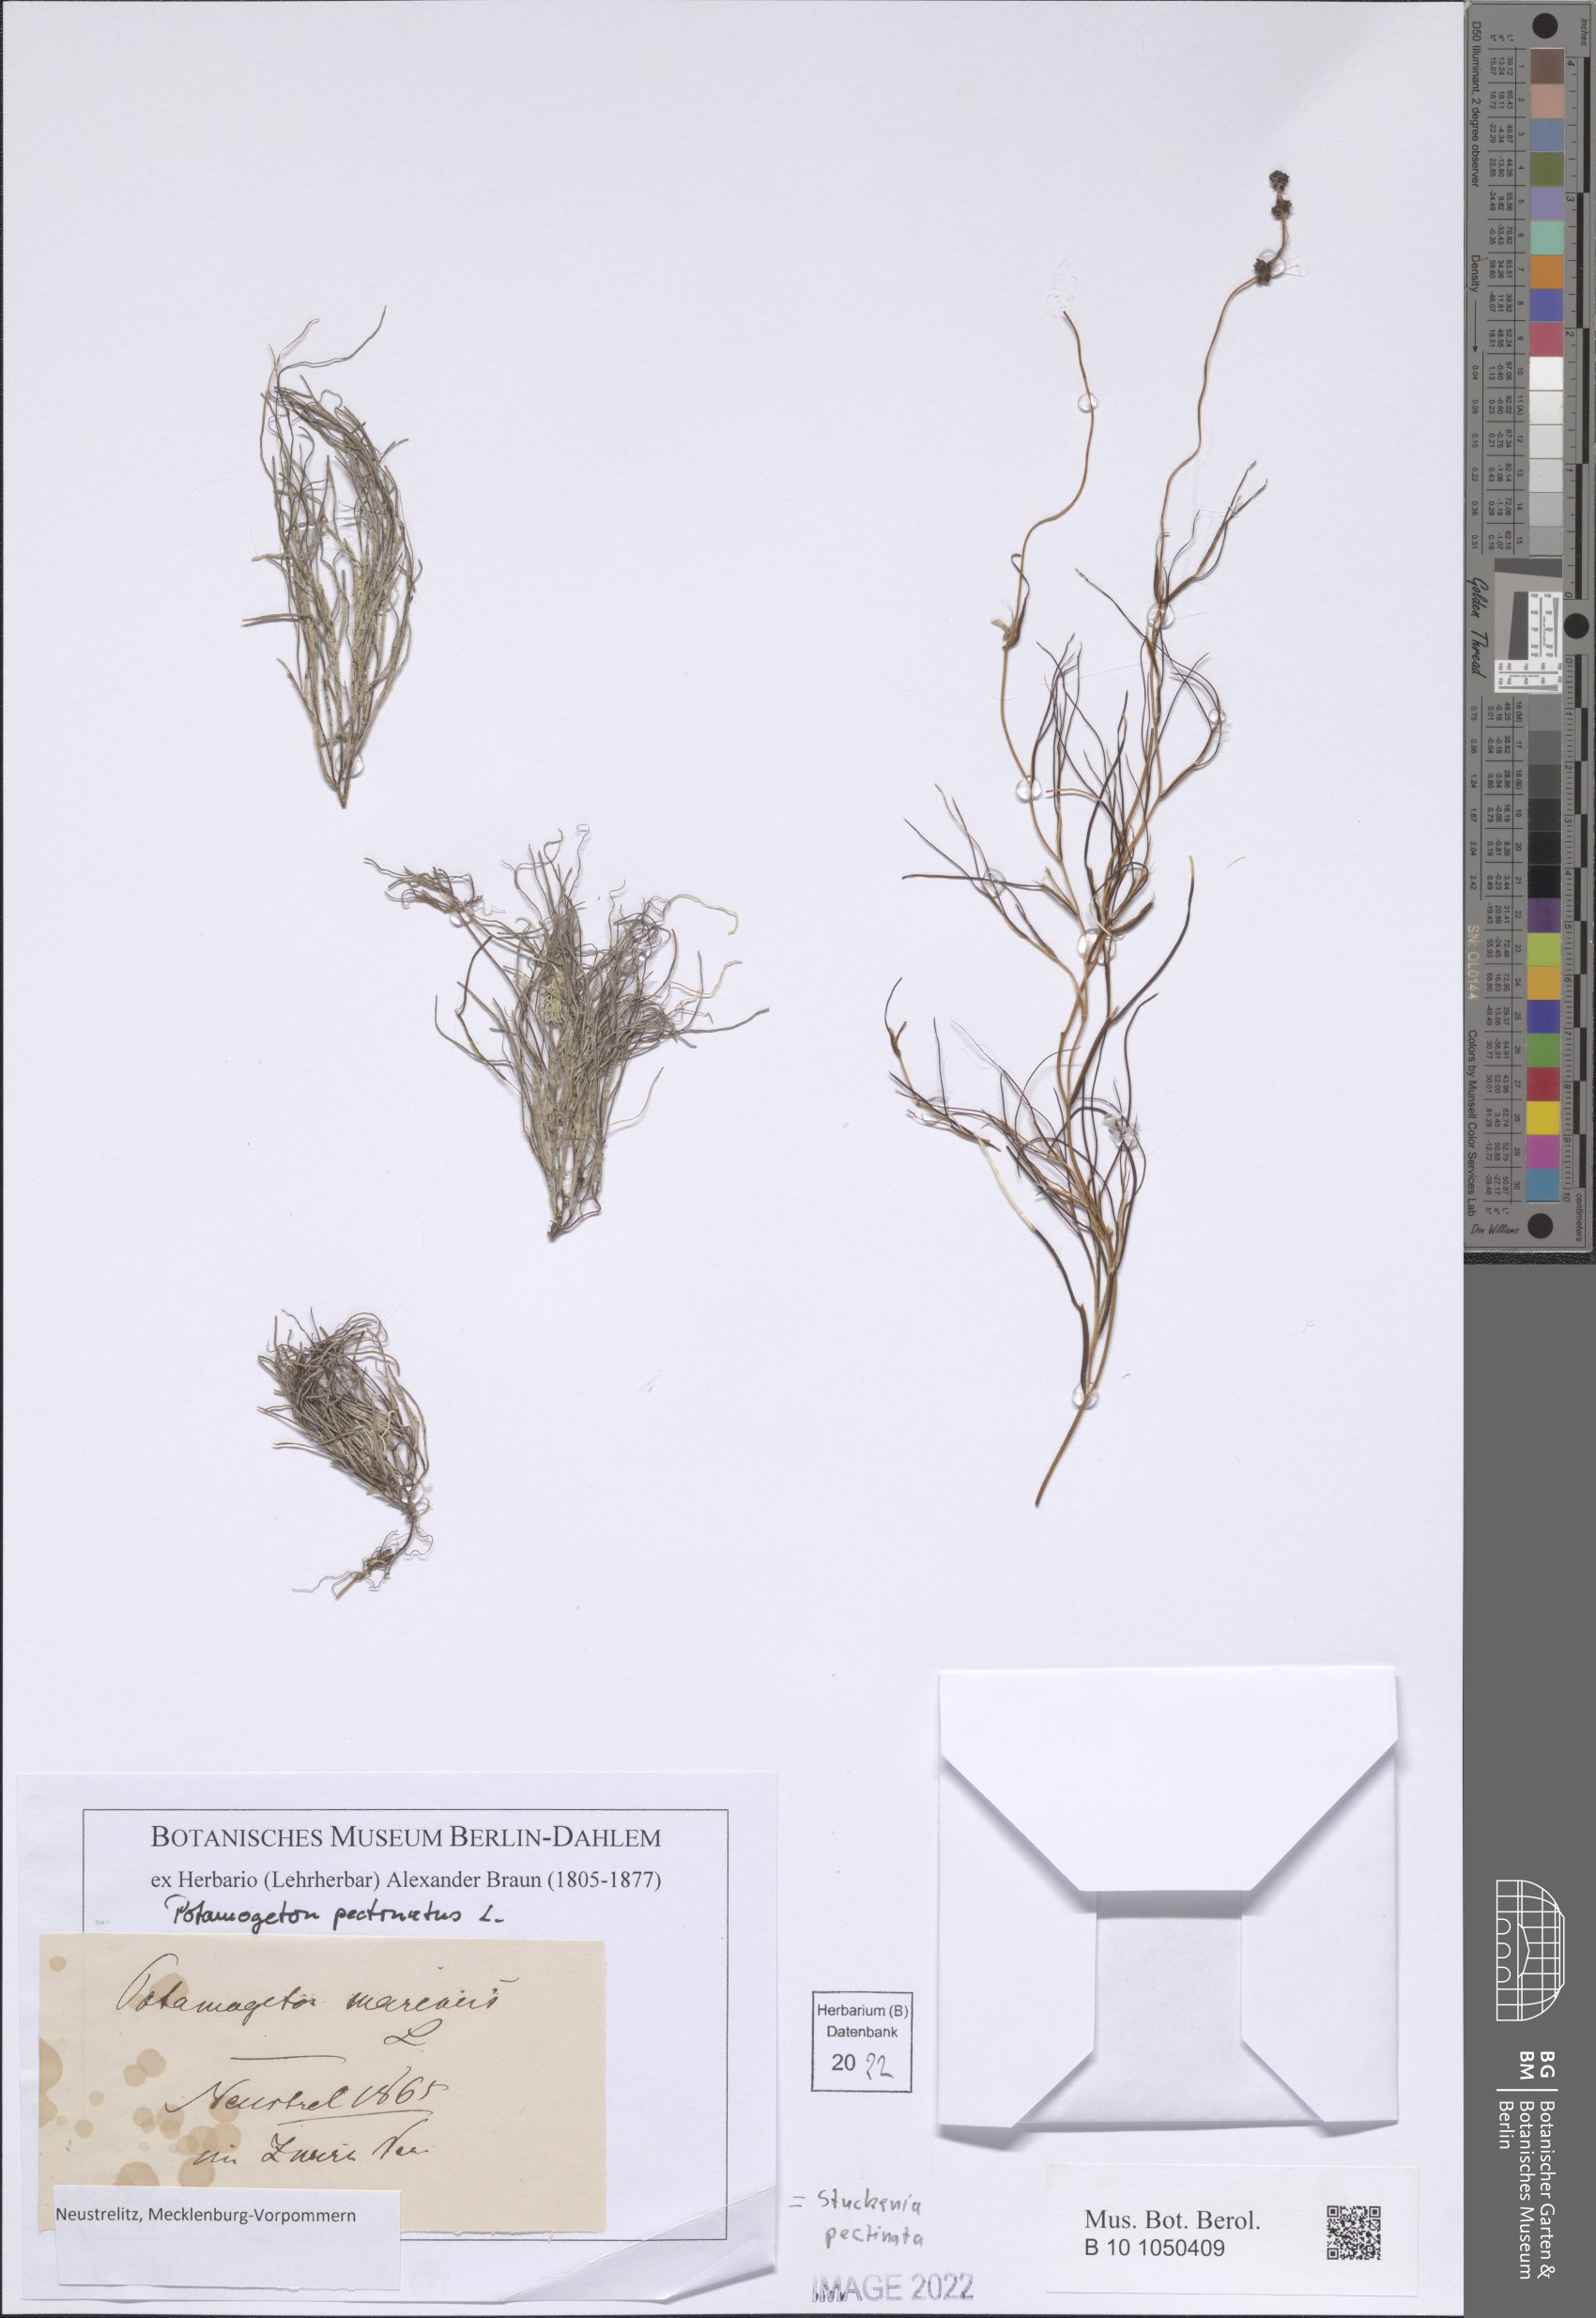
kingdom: Plantae
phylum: Tracheophyta
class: Liliopsida
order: Alismatales
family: Potamogetonaceae
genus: Stuckenia
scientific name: Stuckenia pectinata
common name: Sago pondweed
